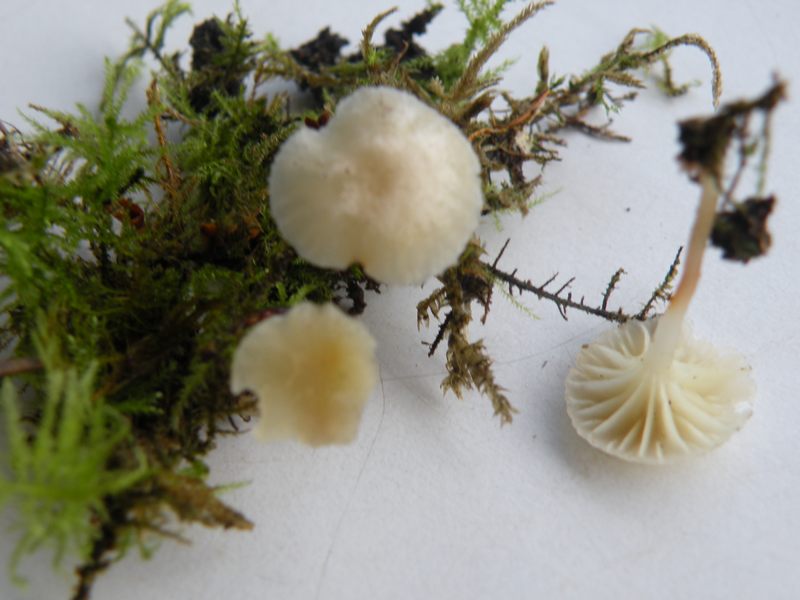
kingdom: Fungi
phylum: Basidiomycota
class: Agaricomycetes
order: Agaricales
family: Hygrophoraceae
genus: Chrysomphalina
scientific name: Chrysomphalina grossula
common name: stød-gyldenblad
